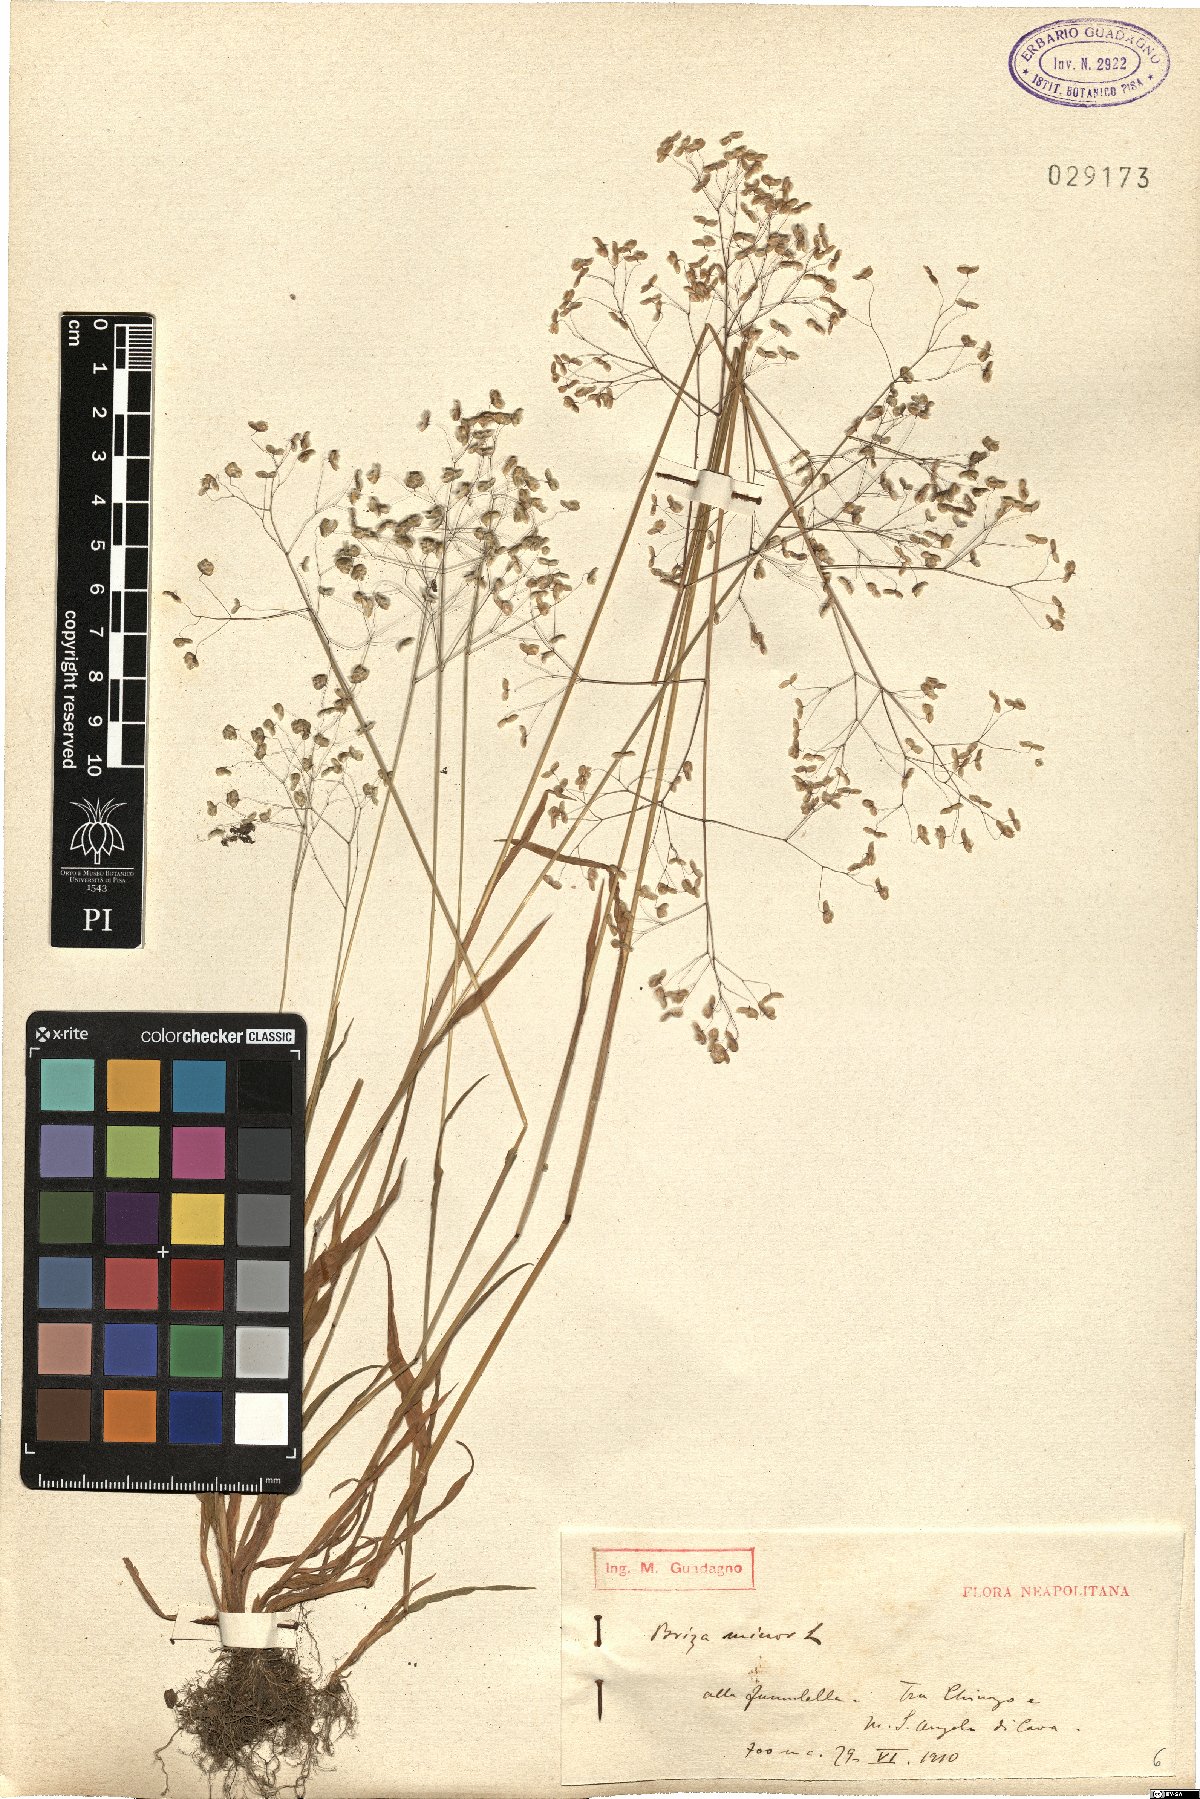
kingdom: Plantae
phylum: Tracheophyta
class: Liliopsida
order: Poales
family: Poaceae
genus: Briza
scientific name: Briza minor
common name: Lesser quaking-grass
